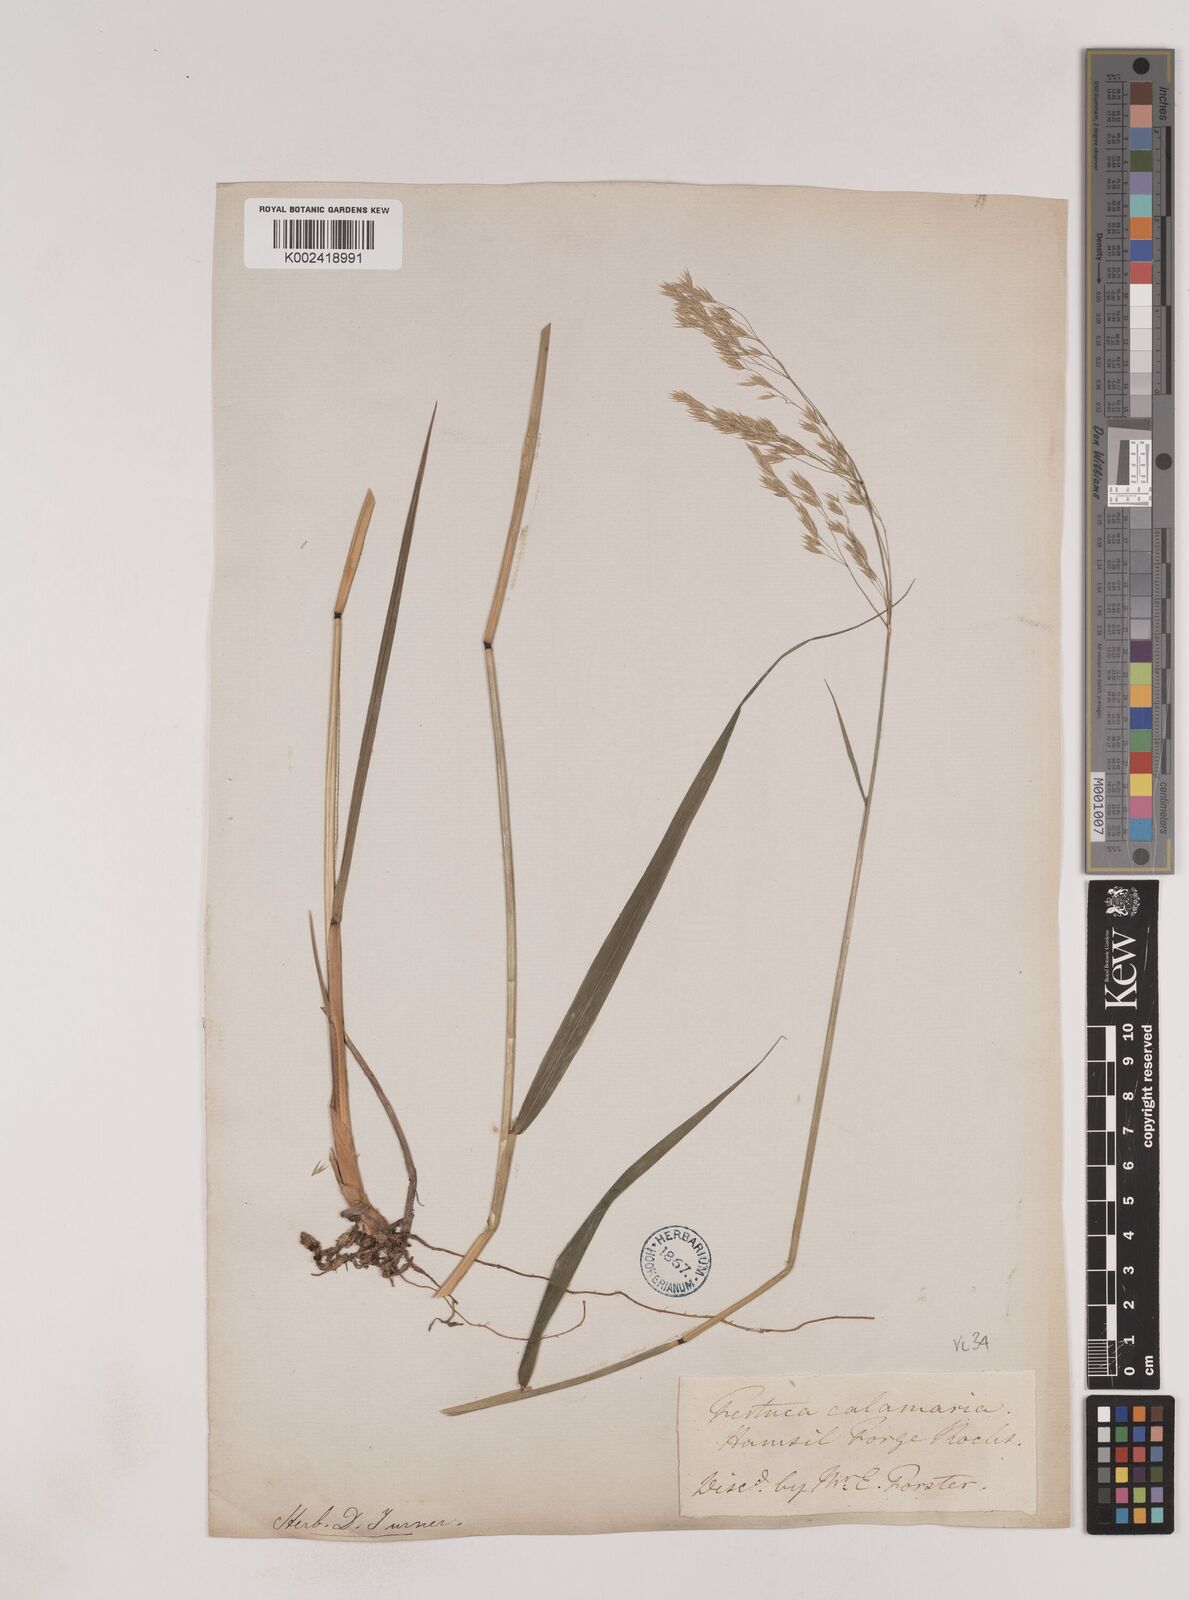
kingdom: Plantae
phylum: Tracheophyta
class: Liliopsida
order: Poales
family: Poaceae
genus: Festuca
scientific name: Festuca drymeja
